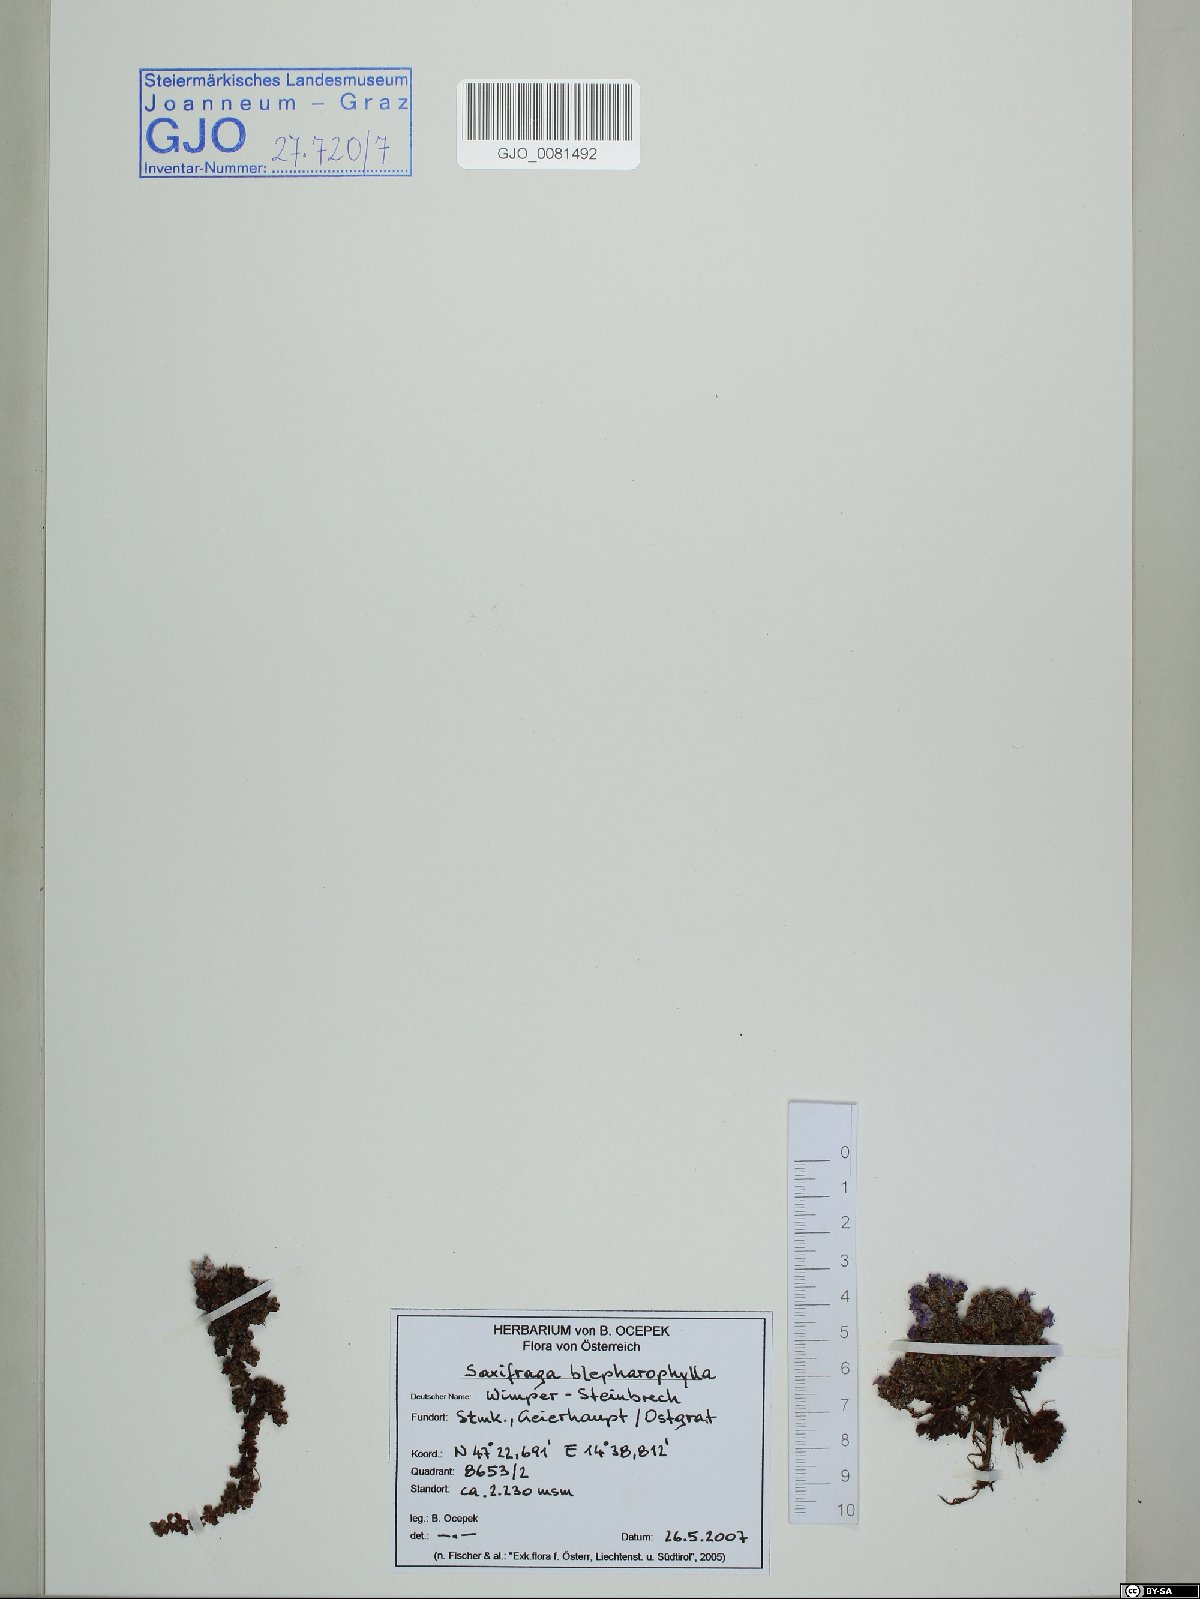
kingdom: Plantae
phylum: Tracheophyta
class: Magnoliopsida
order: Saxifragales
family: Saxifragaceae
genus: Saxifraga
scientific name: Saxifraga oppositifolia
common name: Purple saxifrage
